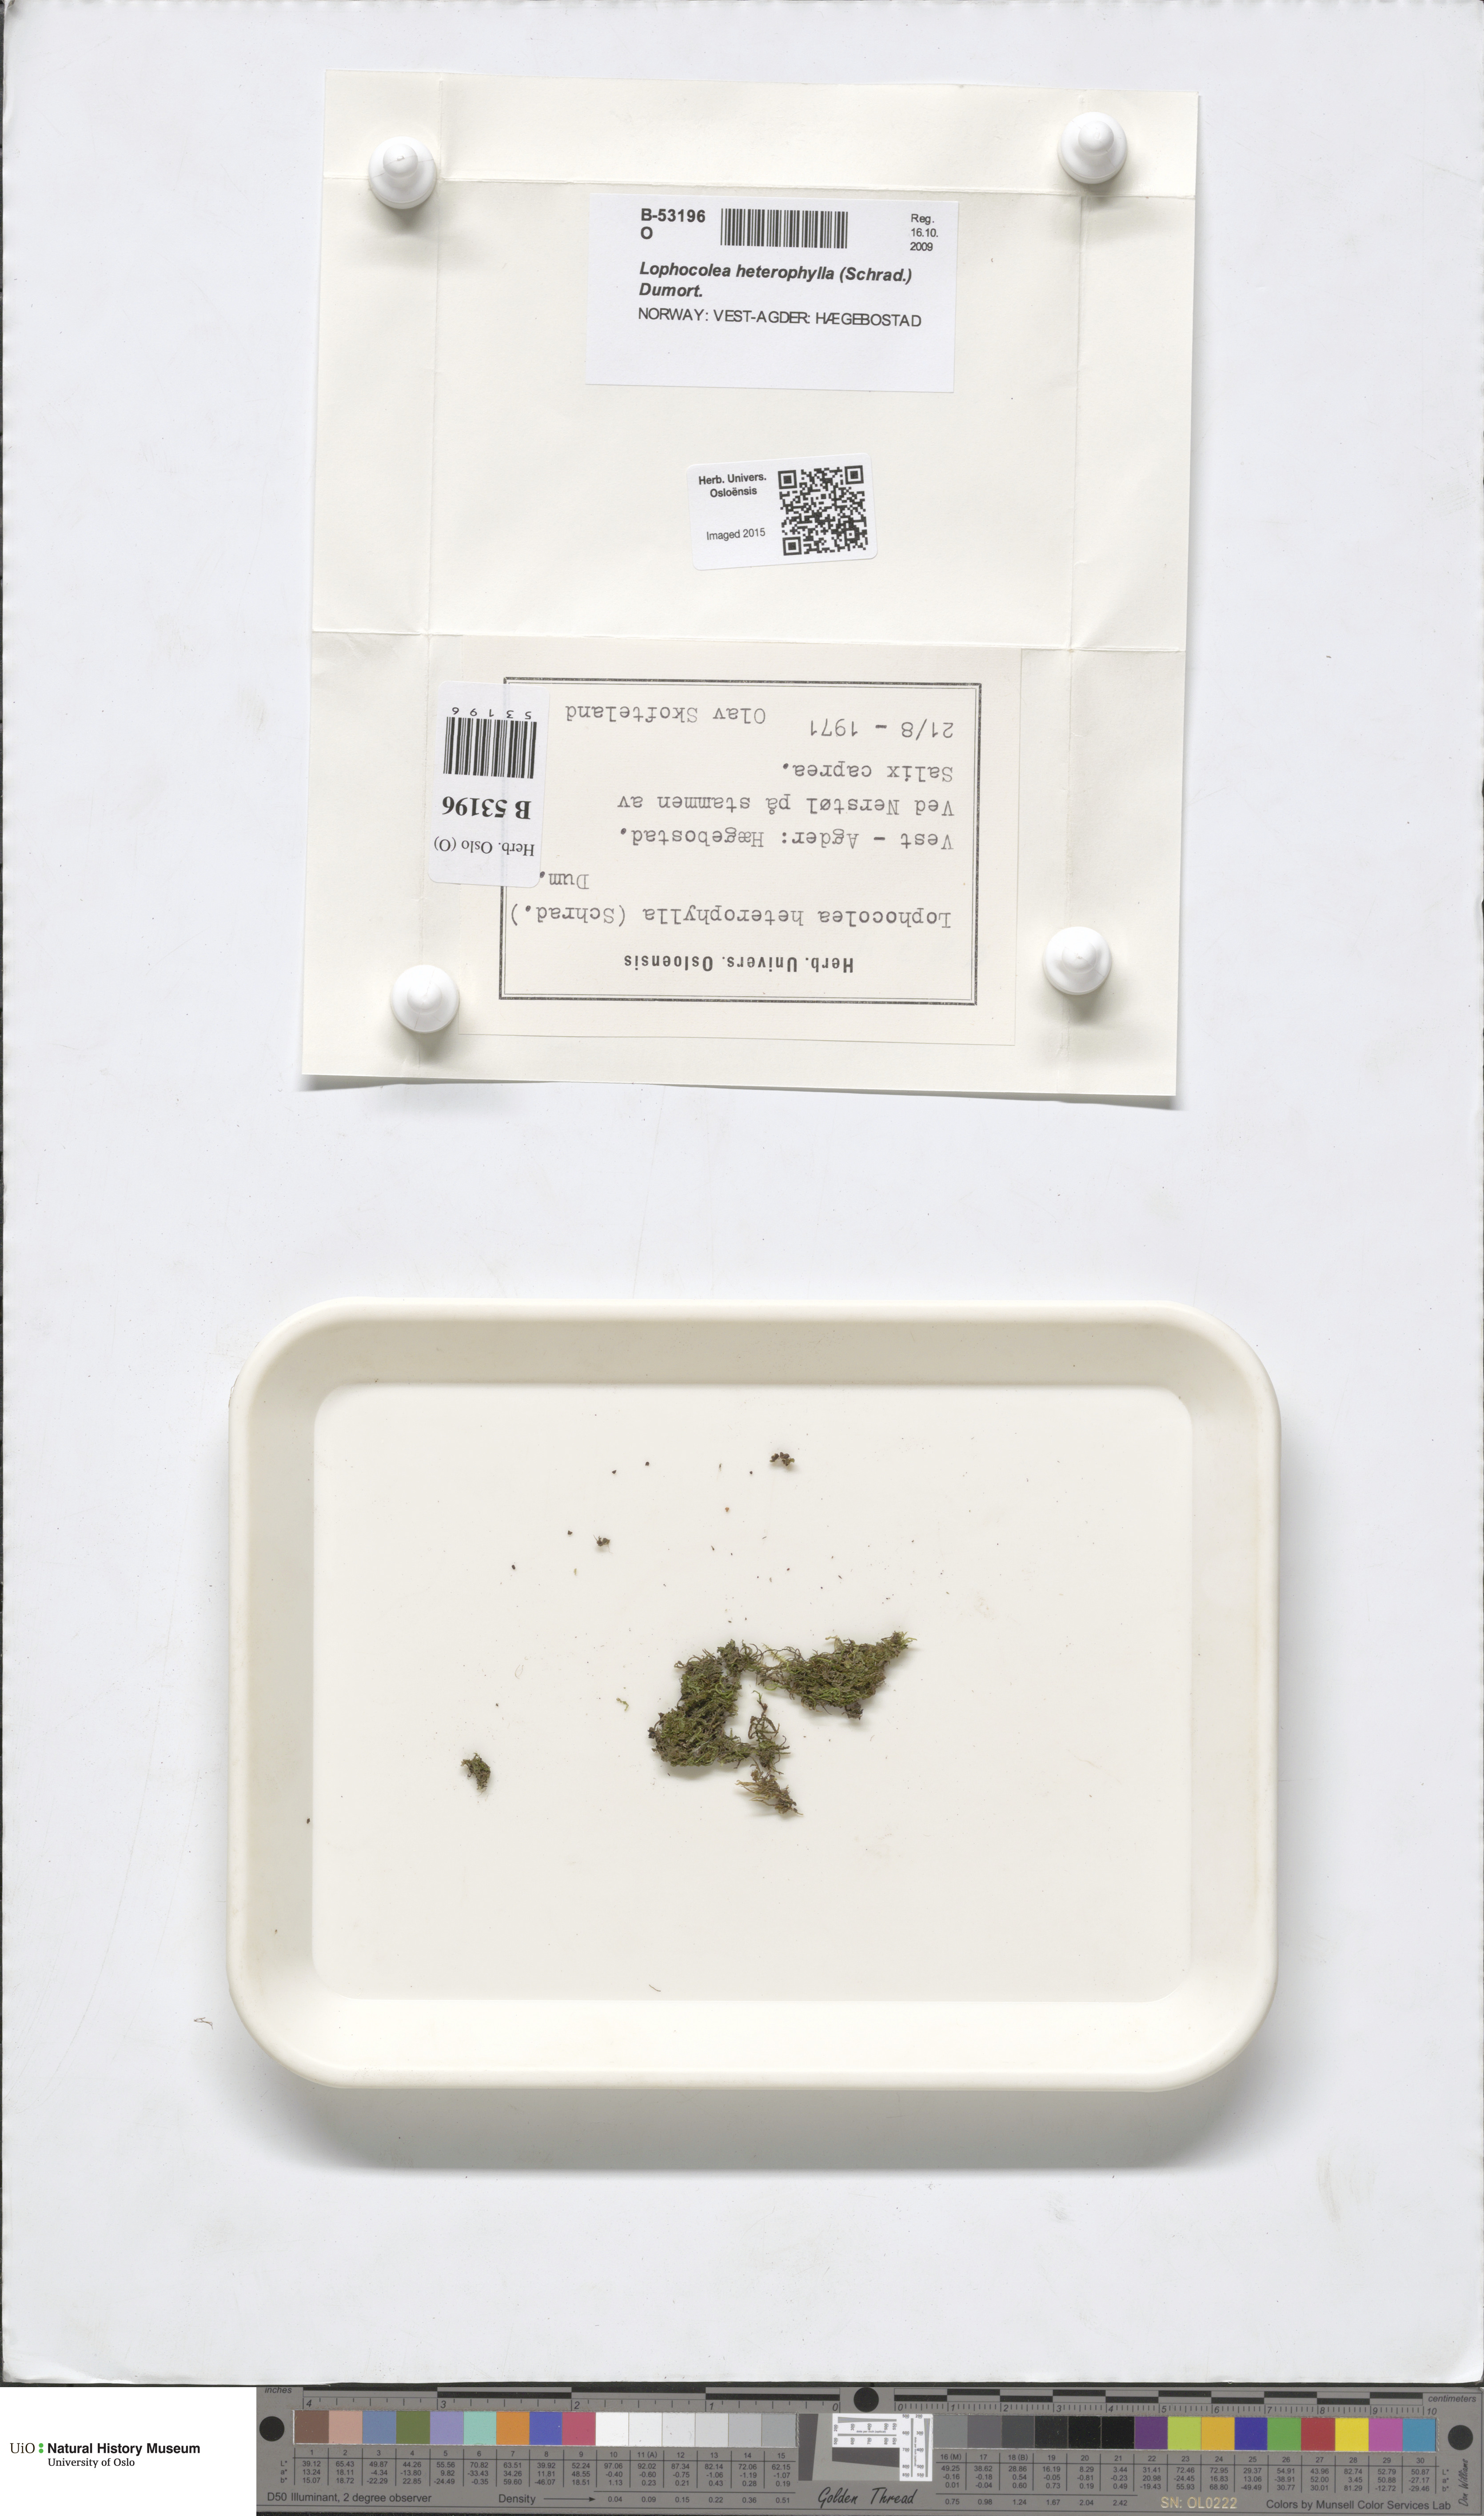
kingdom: Plantae
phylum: Marchantiophyta
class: Jungermanniopsida
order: Jungermanniales
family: Lophocoleaceae
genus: Lophocolea
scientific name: Lophocolea heterophylla
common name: Variable-leaved crestwort
